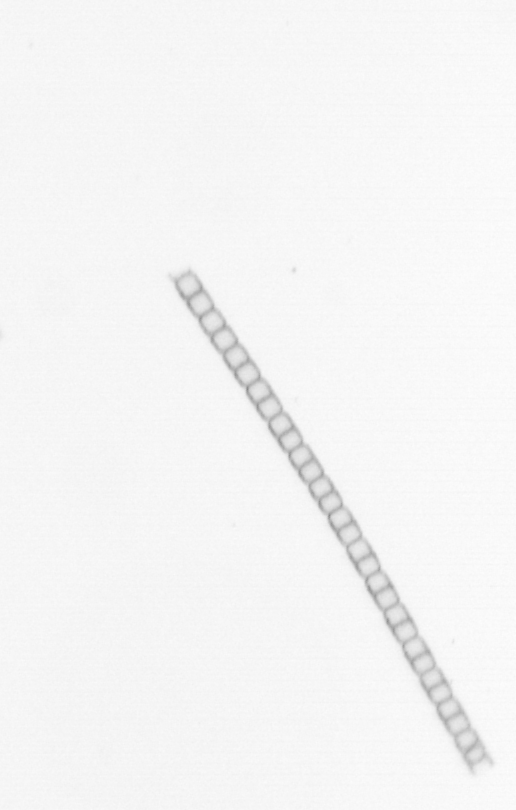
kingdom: Chromista
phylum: Ochrophyta
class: Bacillariophyceae
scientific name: Bacillariophyceae
